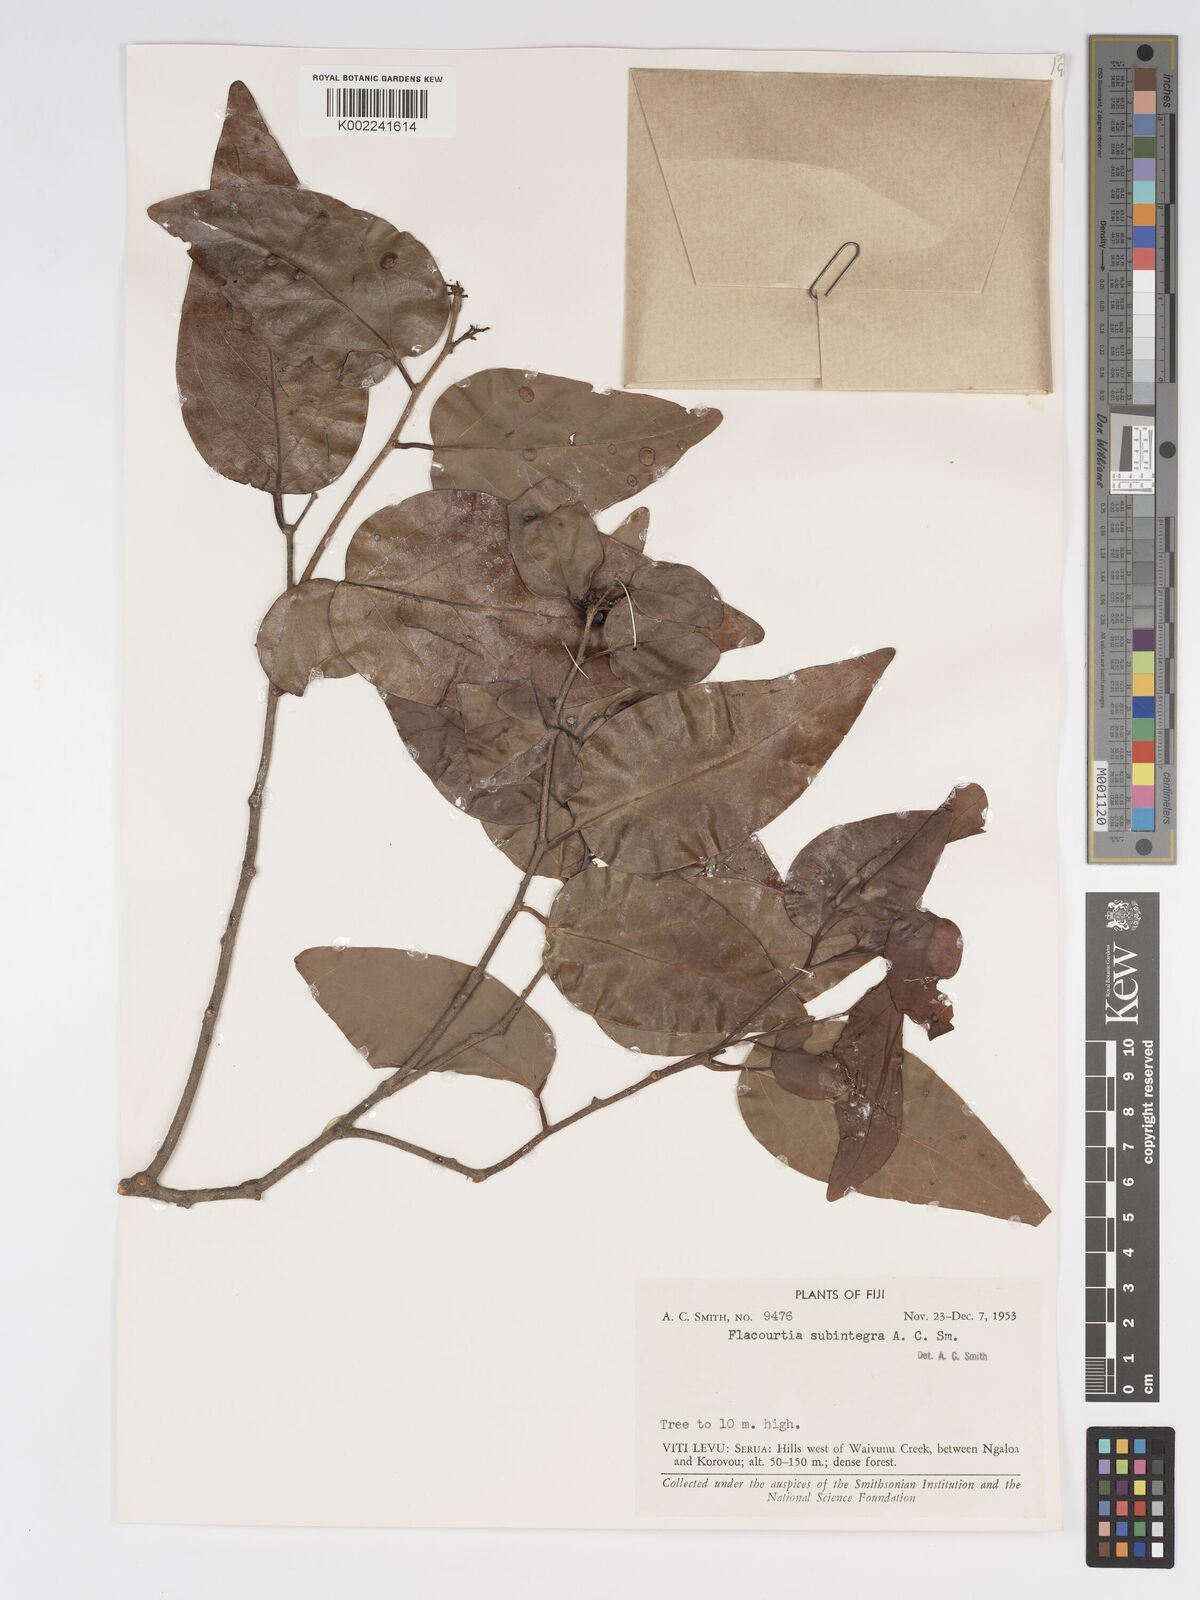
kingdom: Plantae
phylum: Tracheophyta
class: Magnoliopsida
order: Malpighiales
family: Salicaceae
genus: Flacourtia
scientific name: Flacourtia subintegra
